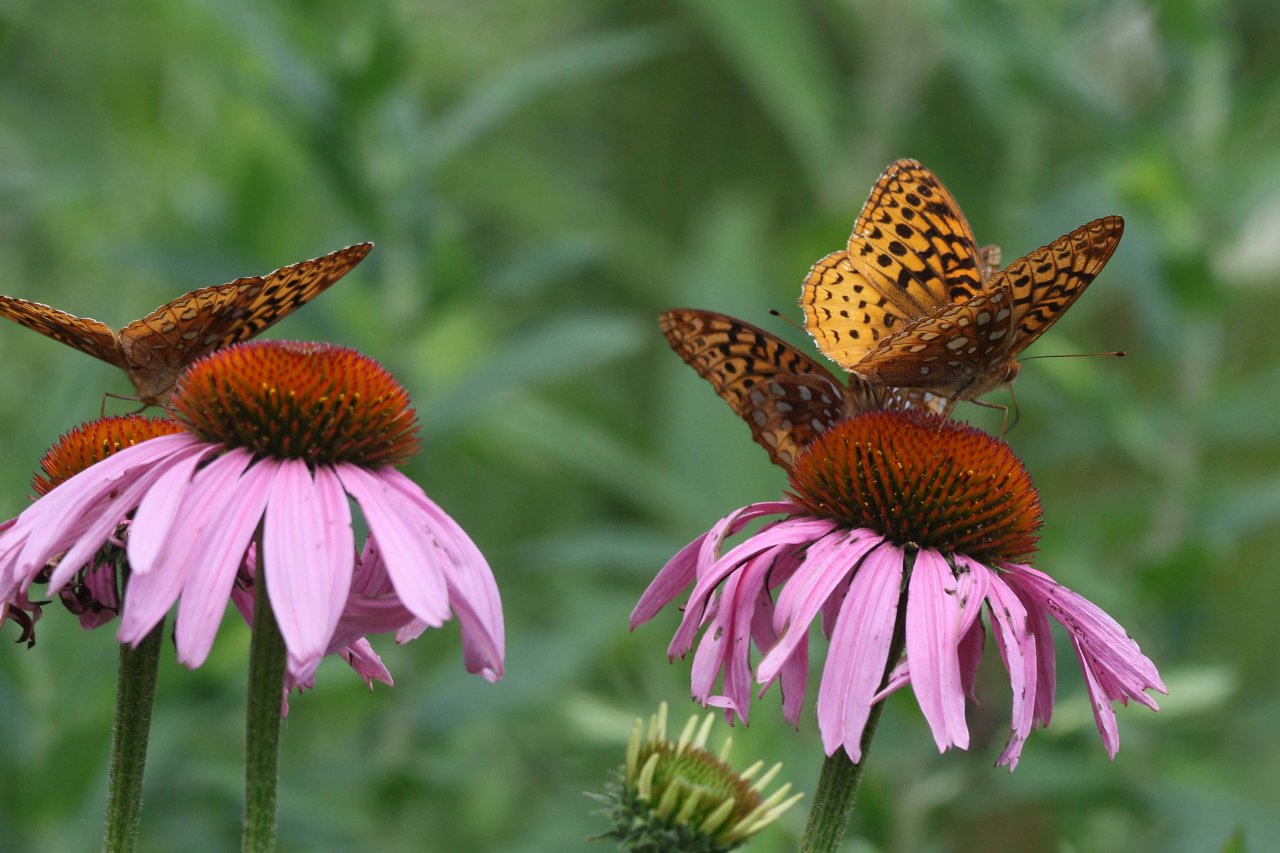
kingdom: Animalia
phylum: Arthropoda
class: Insecta
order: Lepidoptera
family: Nymphalidae
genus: Speyeria
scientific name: Speyeria cybele
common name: Great Spangled Fritillary
